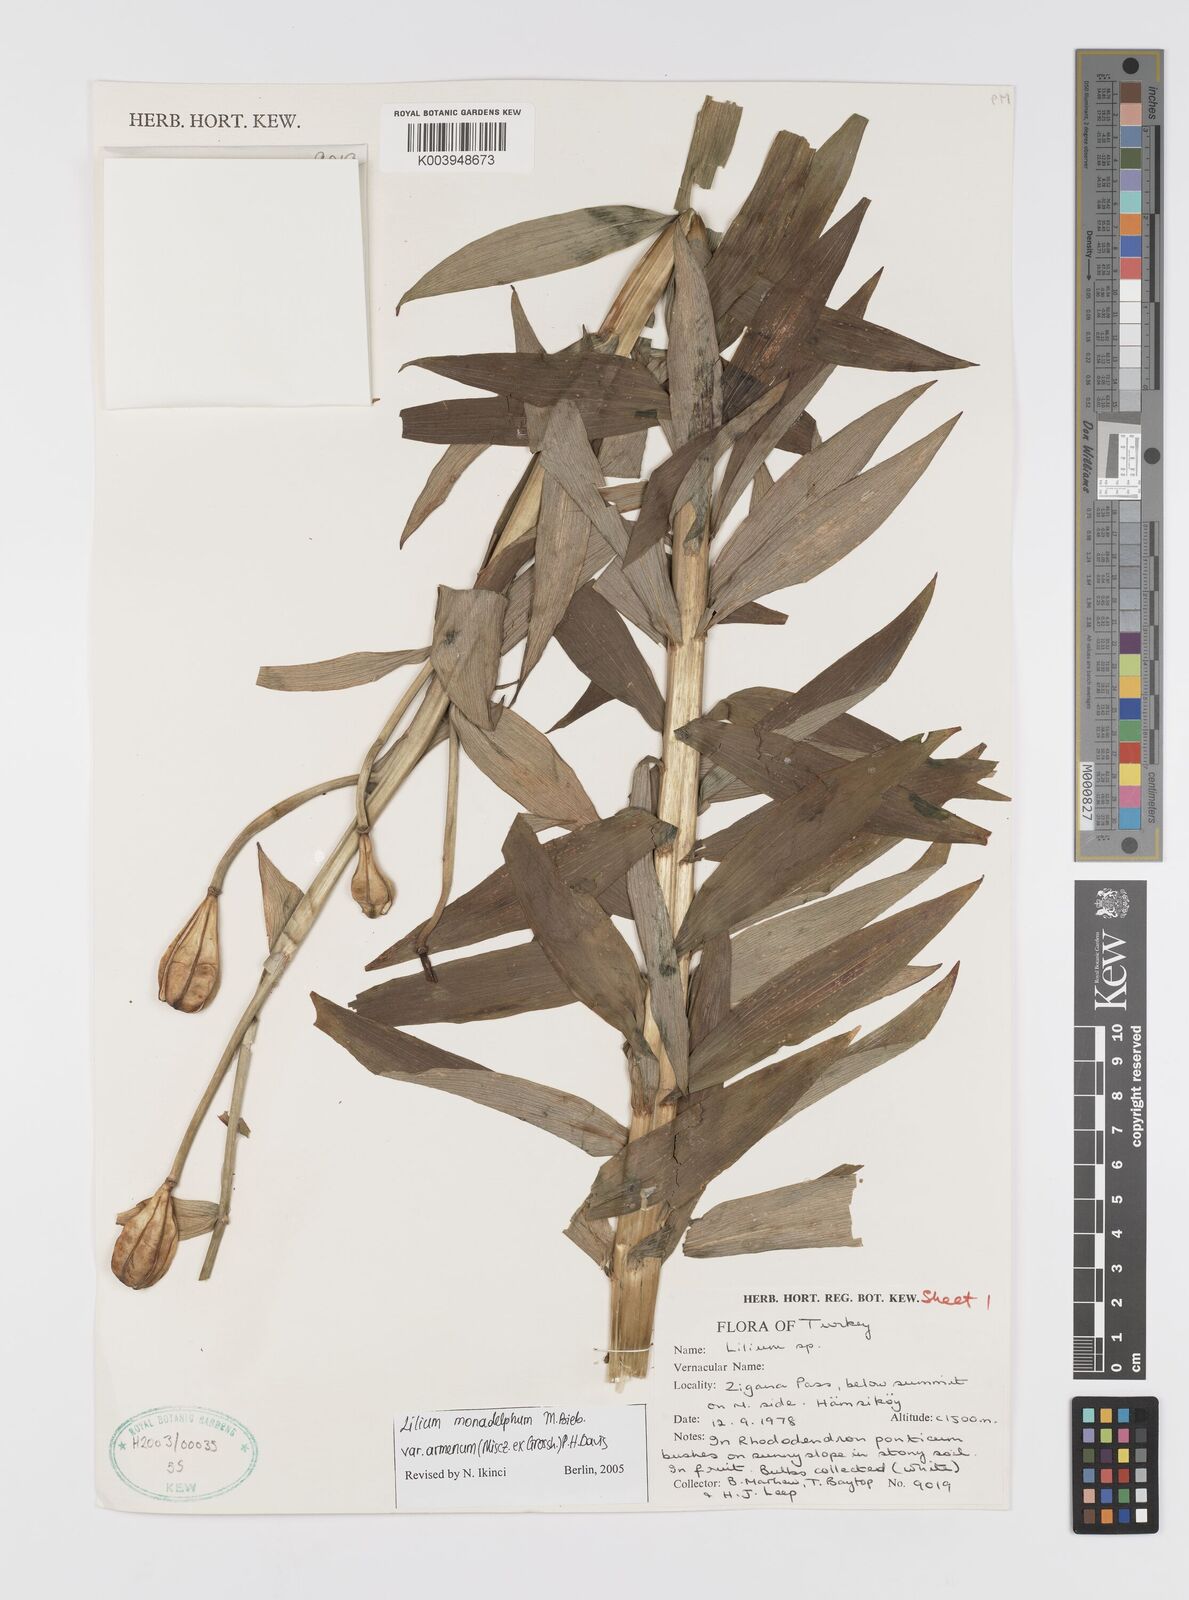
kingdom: Plantae
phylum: Tracheophyta
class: Liliopsida
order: Liliales
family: Liliaceae
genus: Lilium
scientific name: Lilium armenum
